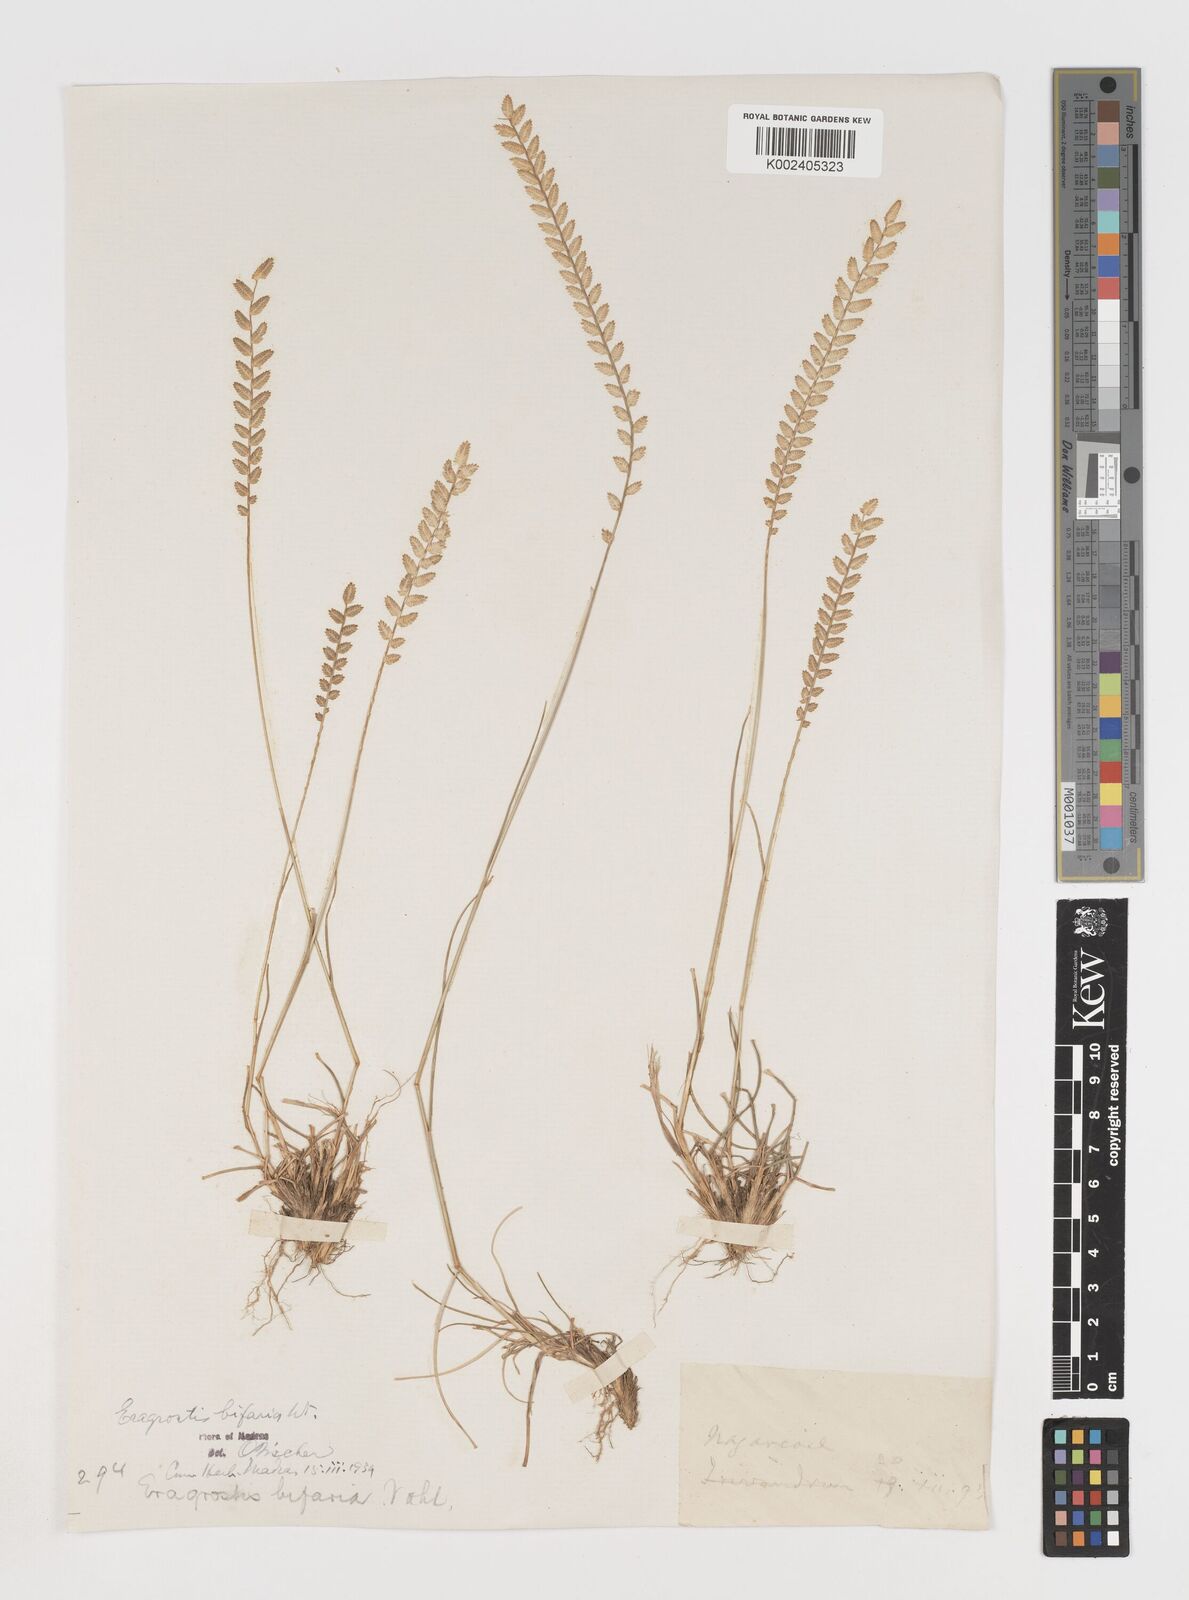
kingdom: Plantae
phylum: Tracheophyta
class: Liliopsida
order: Poales
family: Poaceae
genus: Eragrostiella
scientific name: Eragrostiella bifaria
